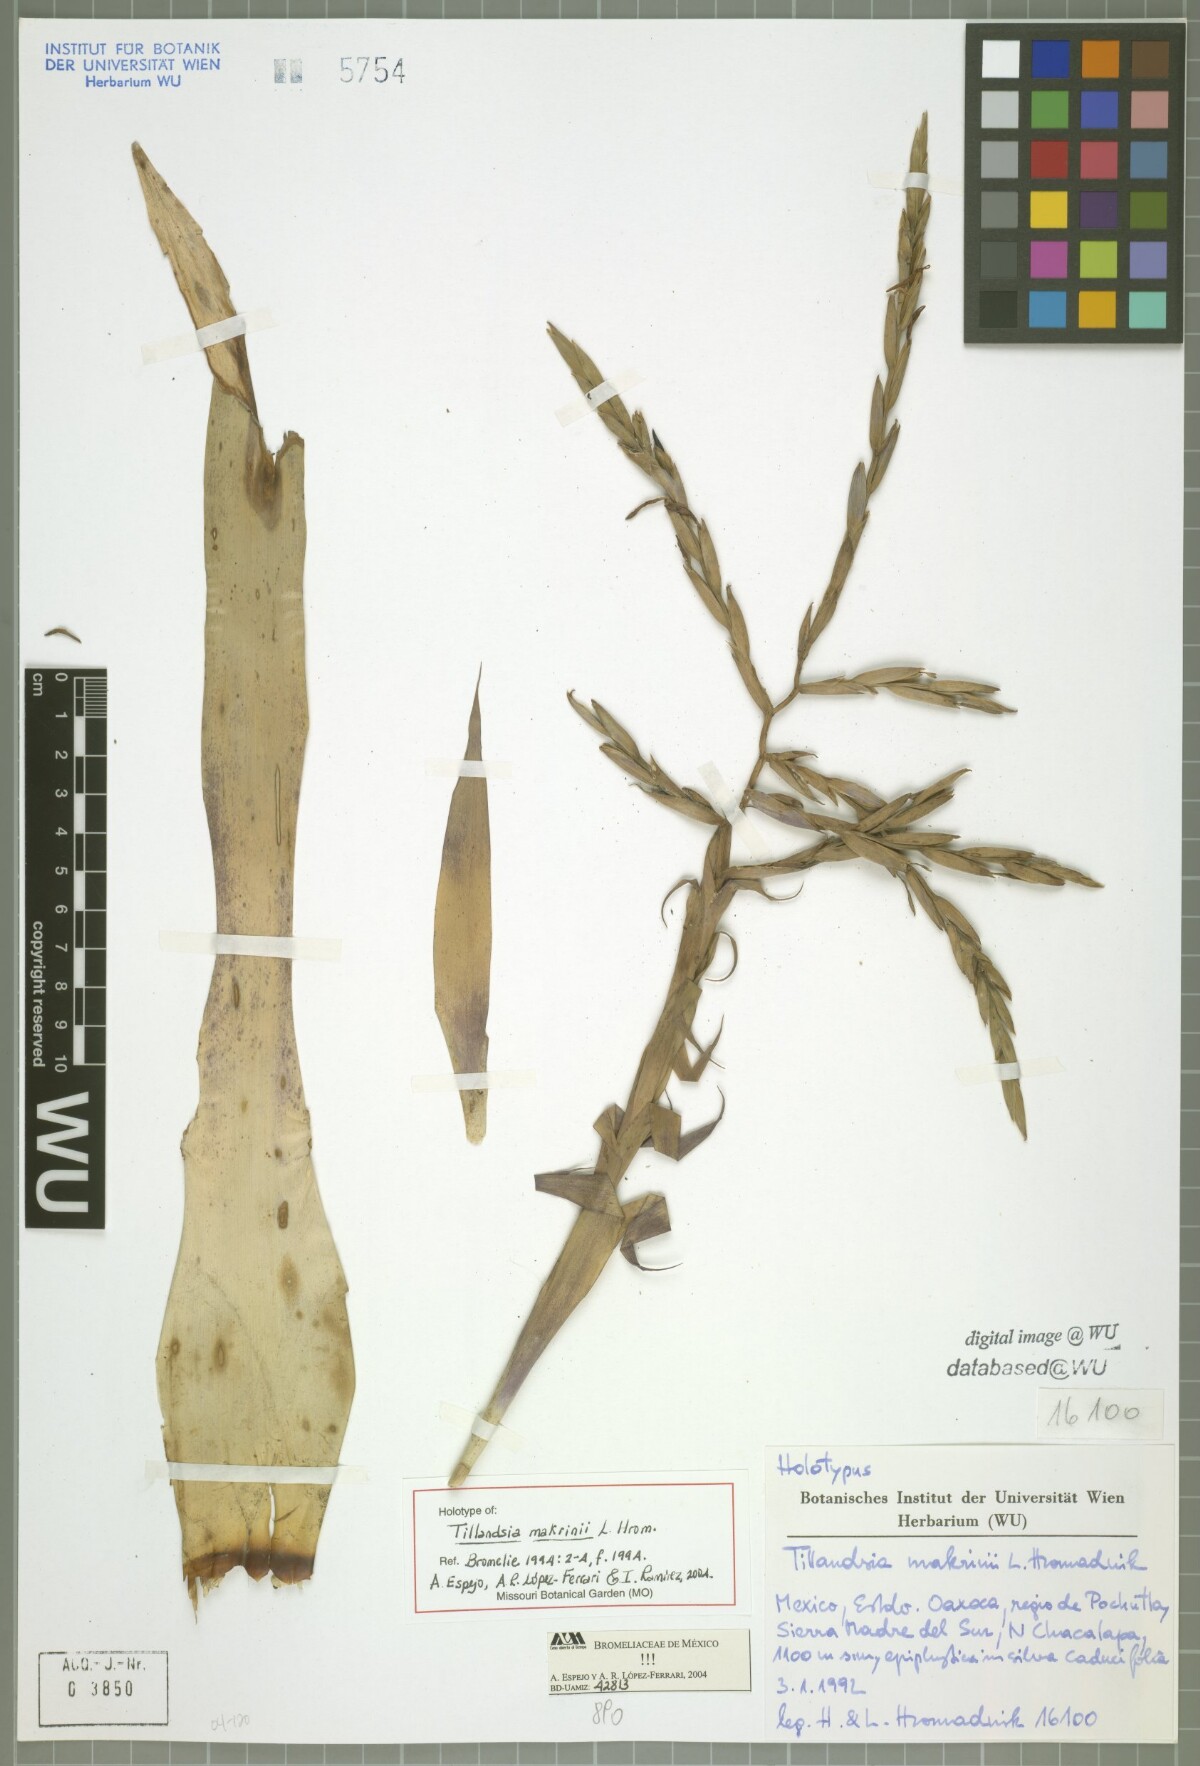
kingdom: Plantae
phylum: Tracheophyta
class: Liliopsida
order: Poales
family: Bromeliaceae
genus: Tillandsia
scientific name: Tillandsia makrinii
